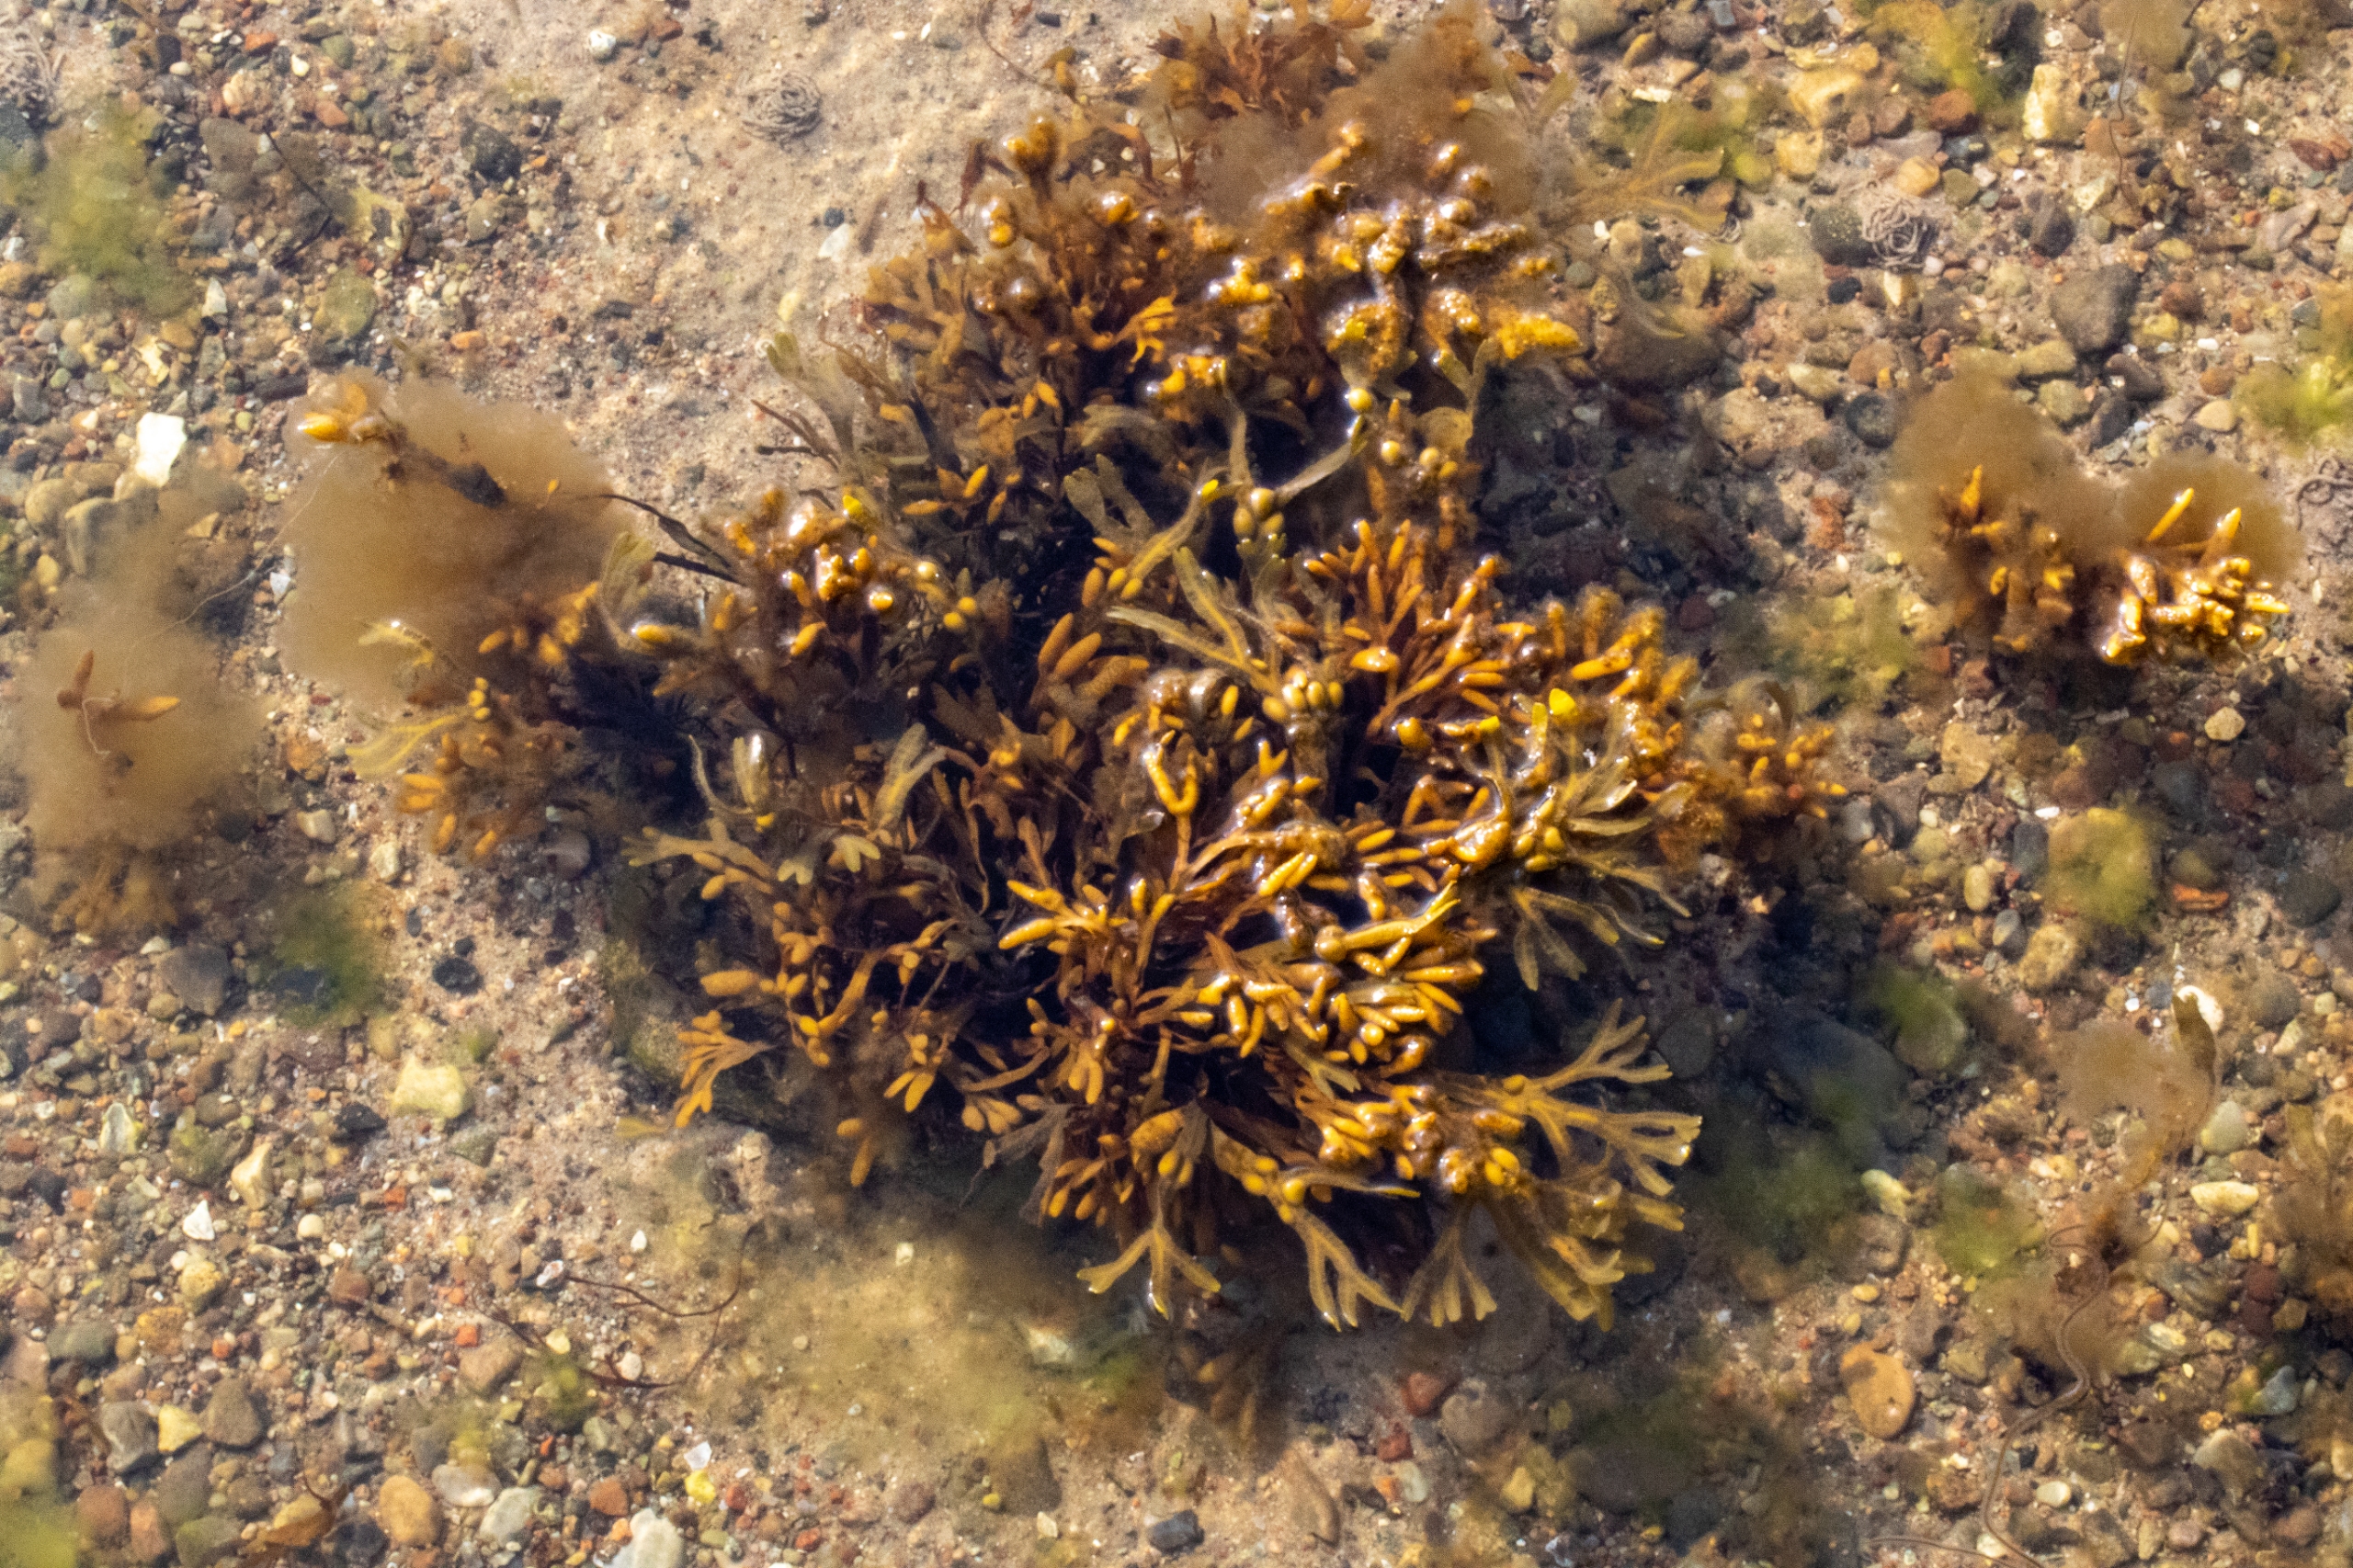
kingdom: Chromista
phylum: Ochrophyta
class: Phaeophyceae
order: Fucales
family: Fucaceae
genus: Fucus
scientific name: Fucus vesiculosus
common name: Blæretang
